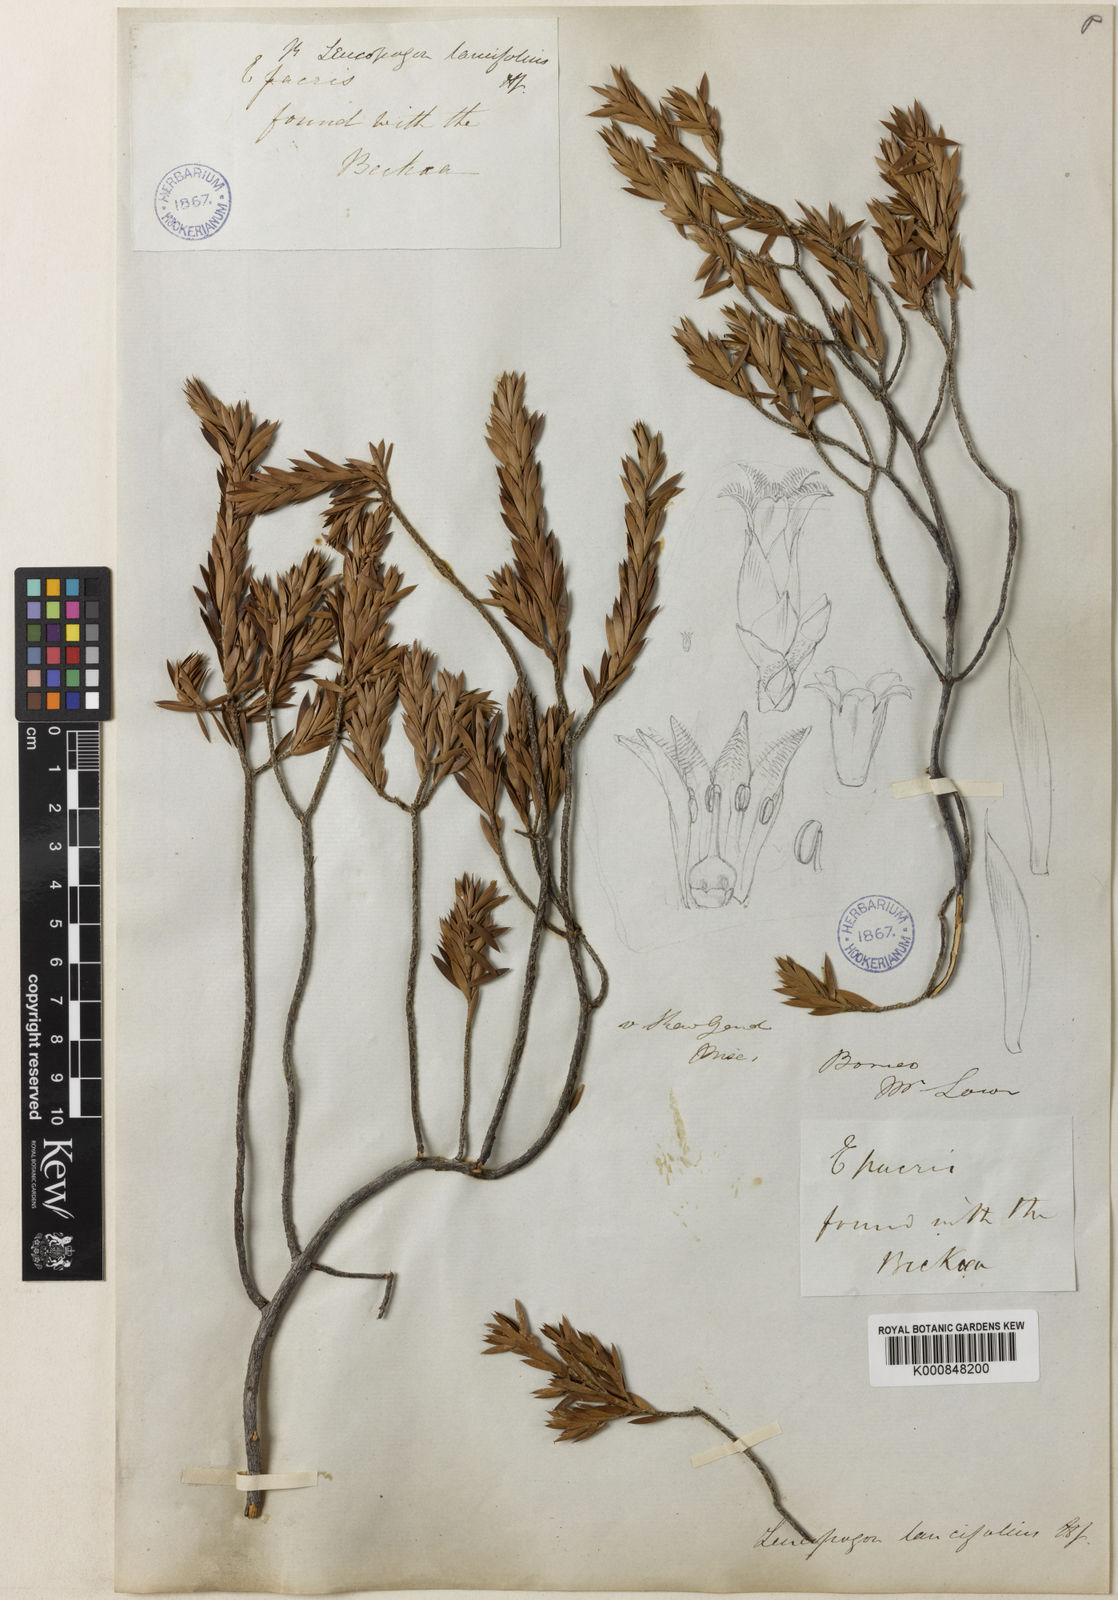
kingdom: Plantae
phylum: Tracheophyta
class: Magnoliopsida
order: Ericales
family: Ericaceae
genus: Styphelia
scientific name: Styphelia abnormis
